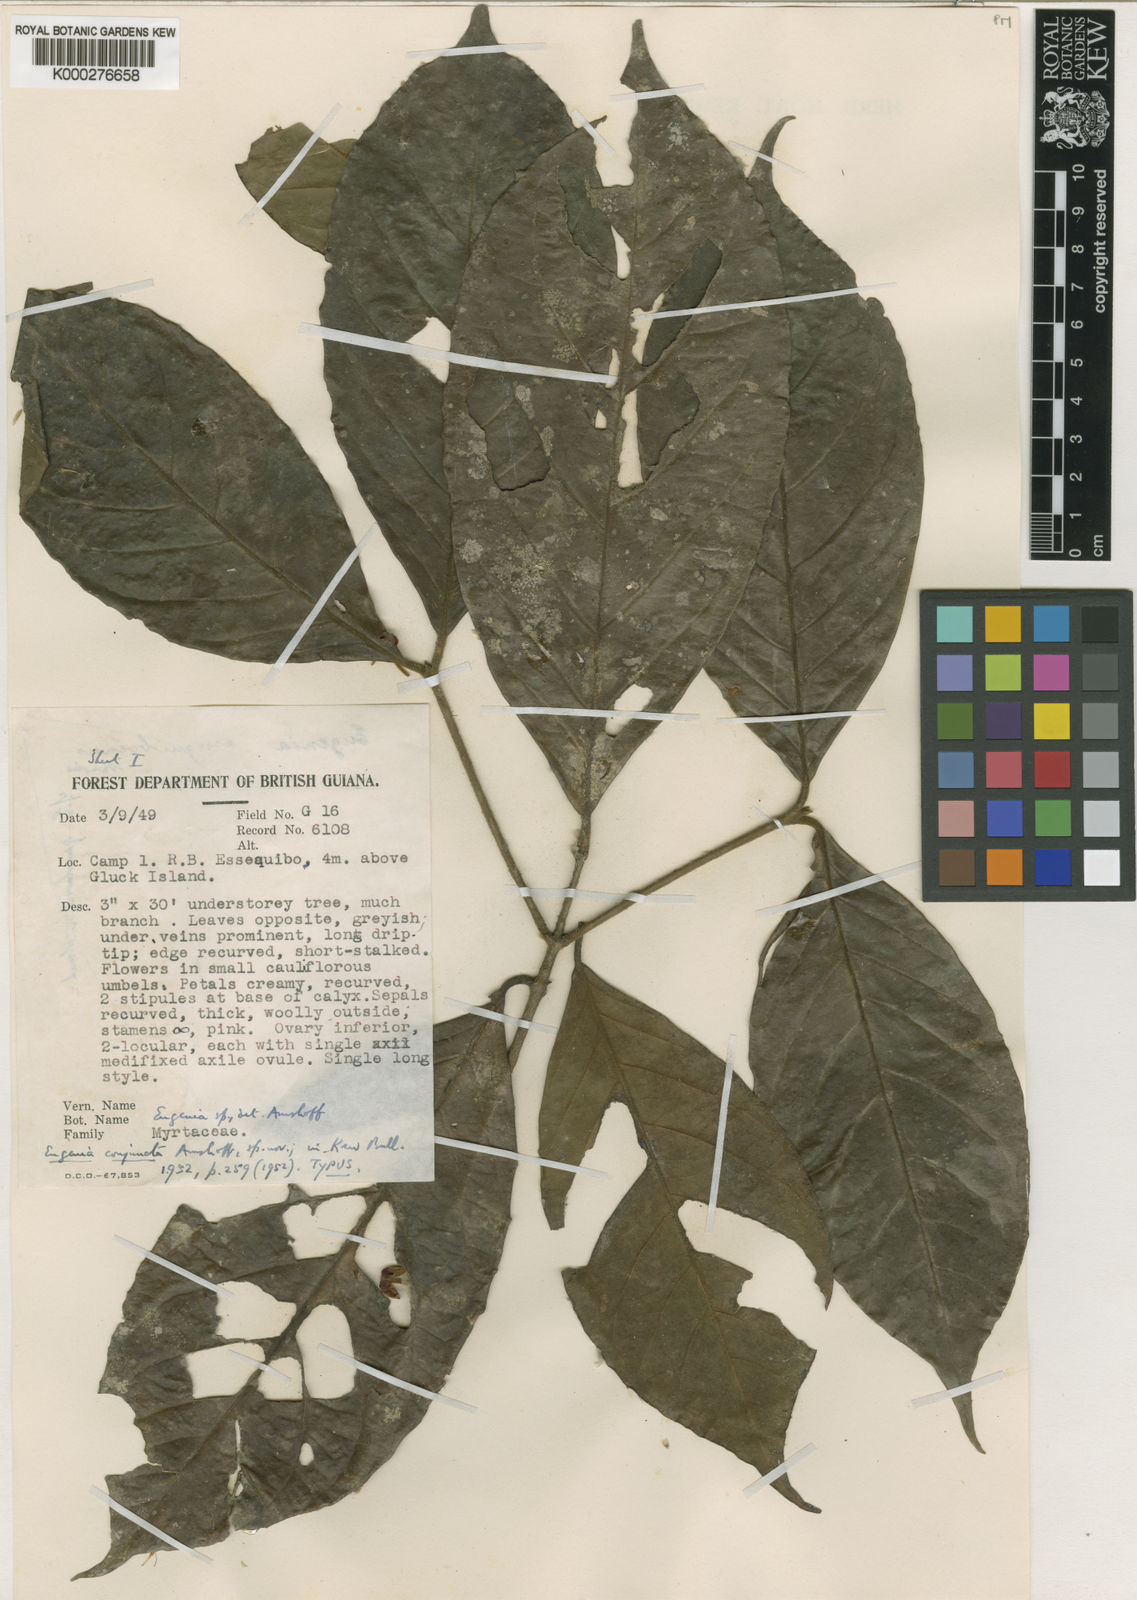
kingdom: Plantae
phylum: Tracheophyta
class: Magnoliopsida
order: Myrtales
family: Myrtaceae
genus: Eugenia
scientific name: Eugenia conjuncta
